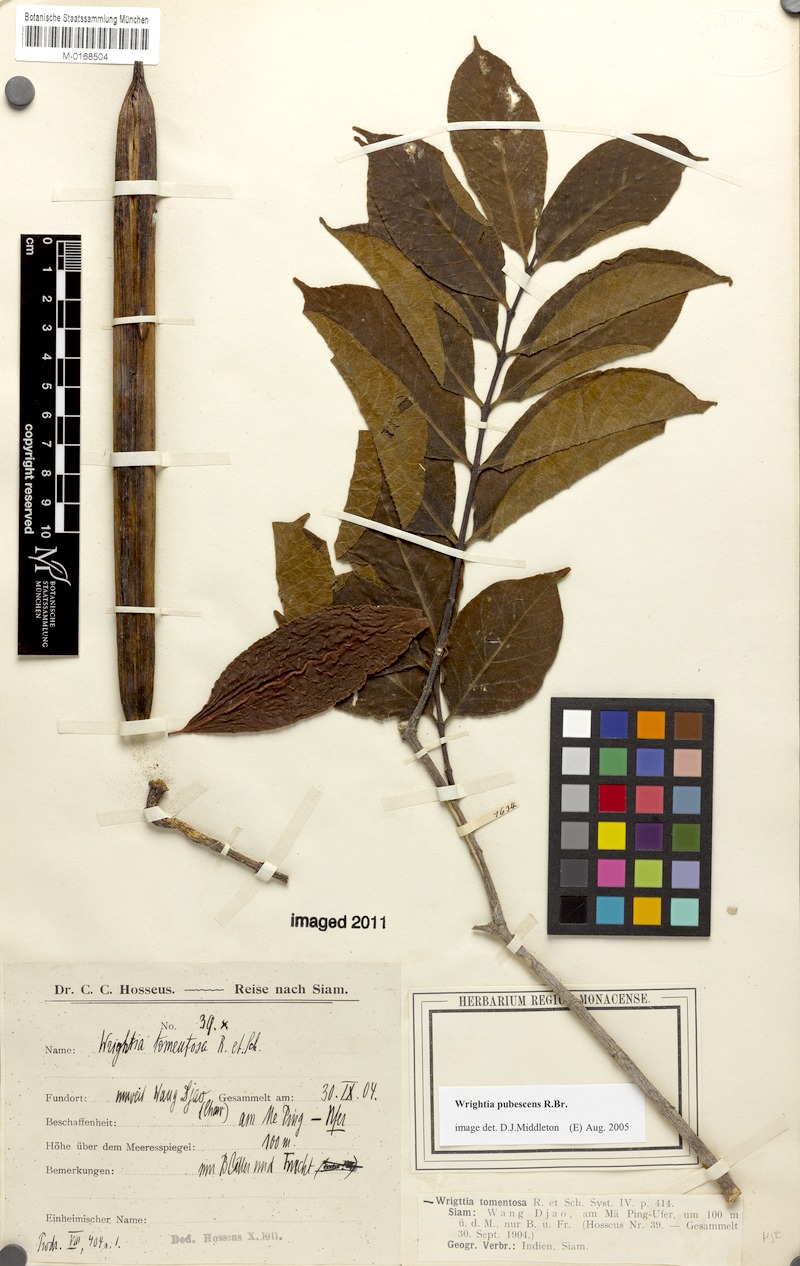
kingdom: Plantae
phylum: Tracheophyta
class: Magnoliopsida
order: Gentianales
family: Apocynaceae
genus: Wrightia
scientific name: Wrightia pubescens
